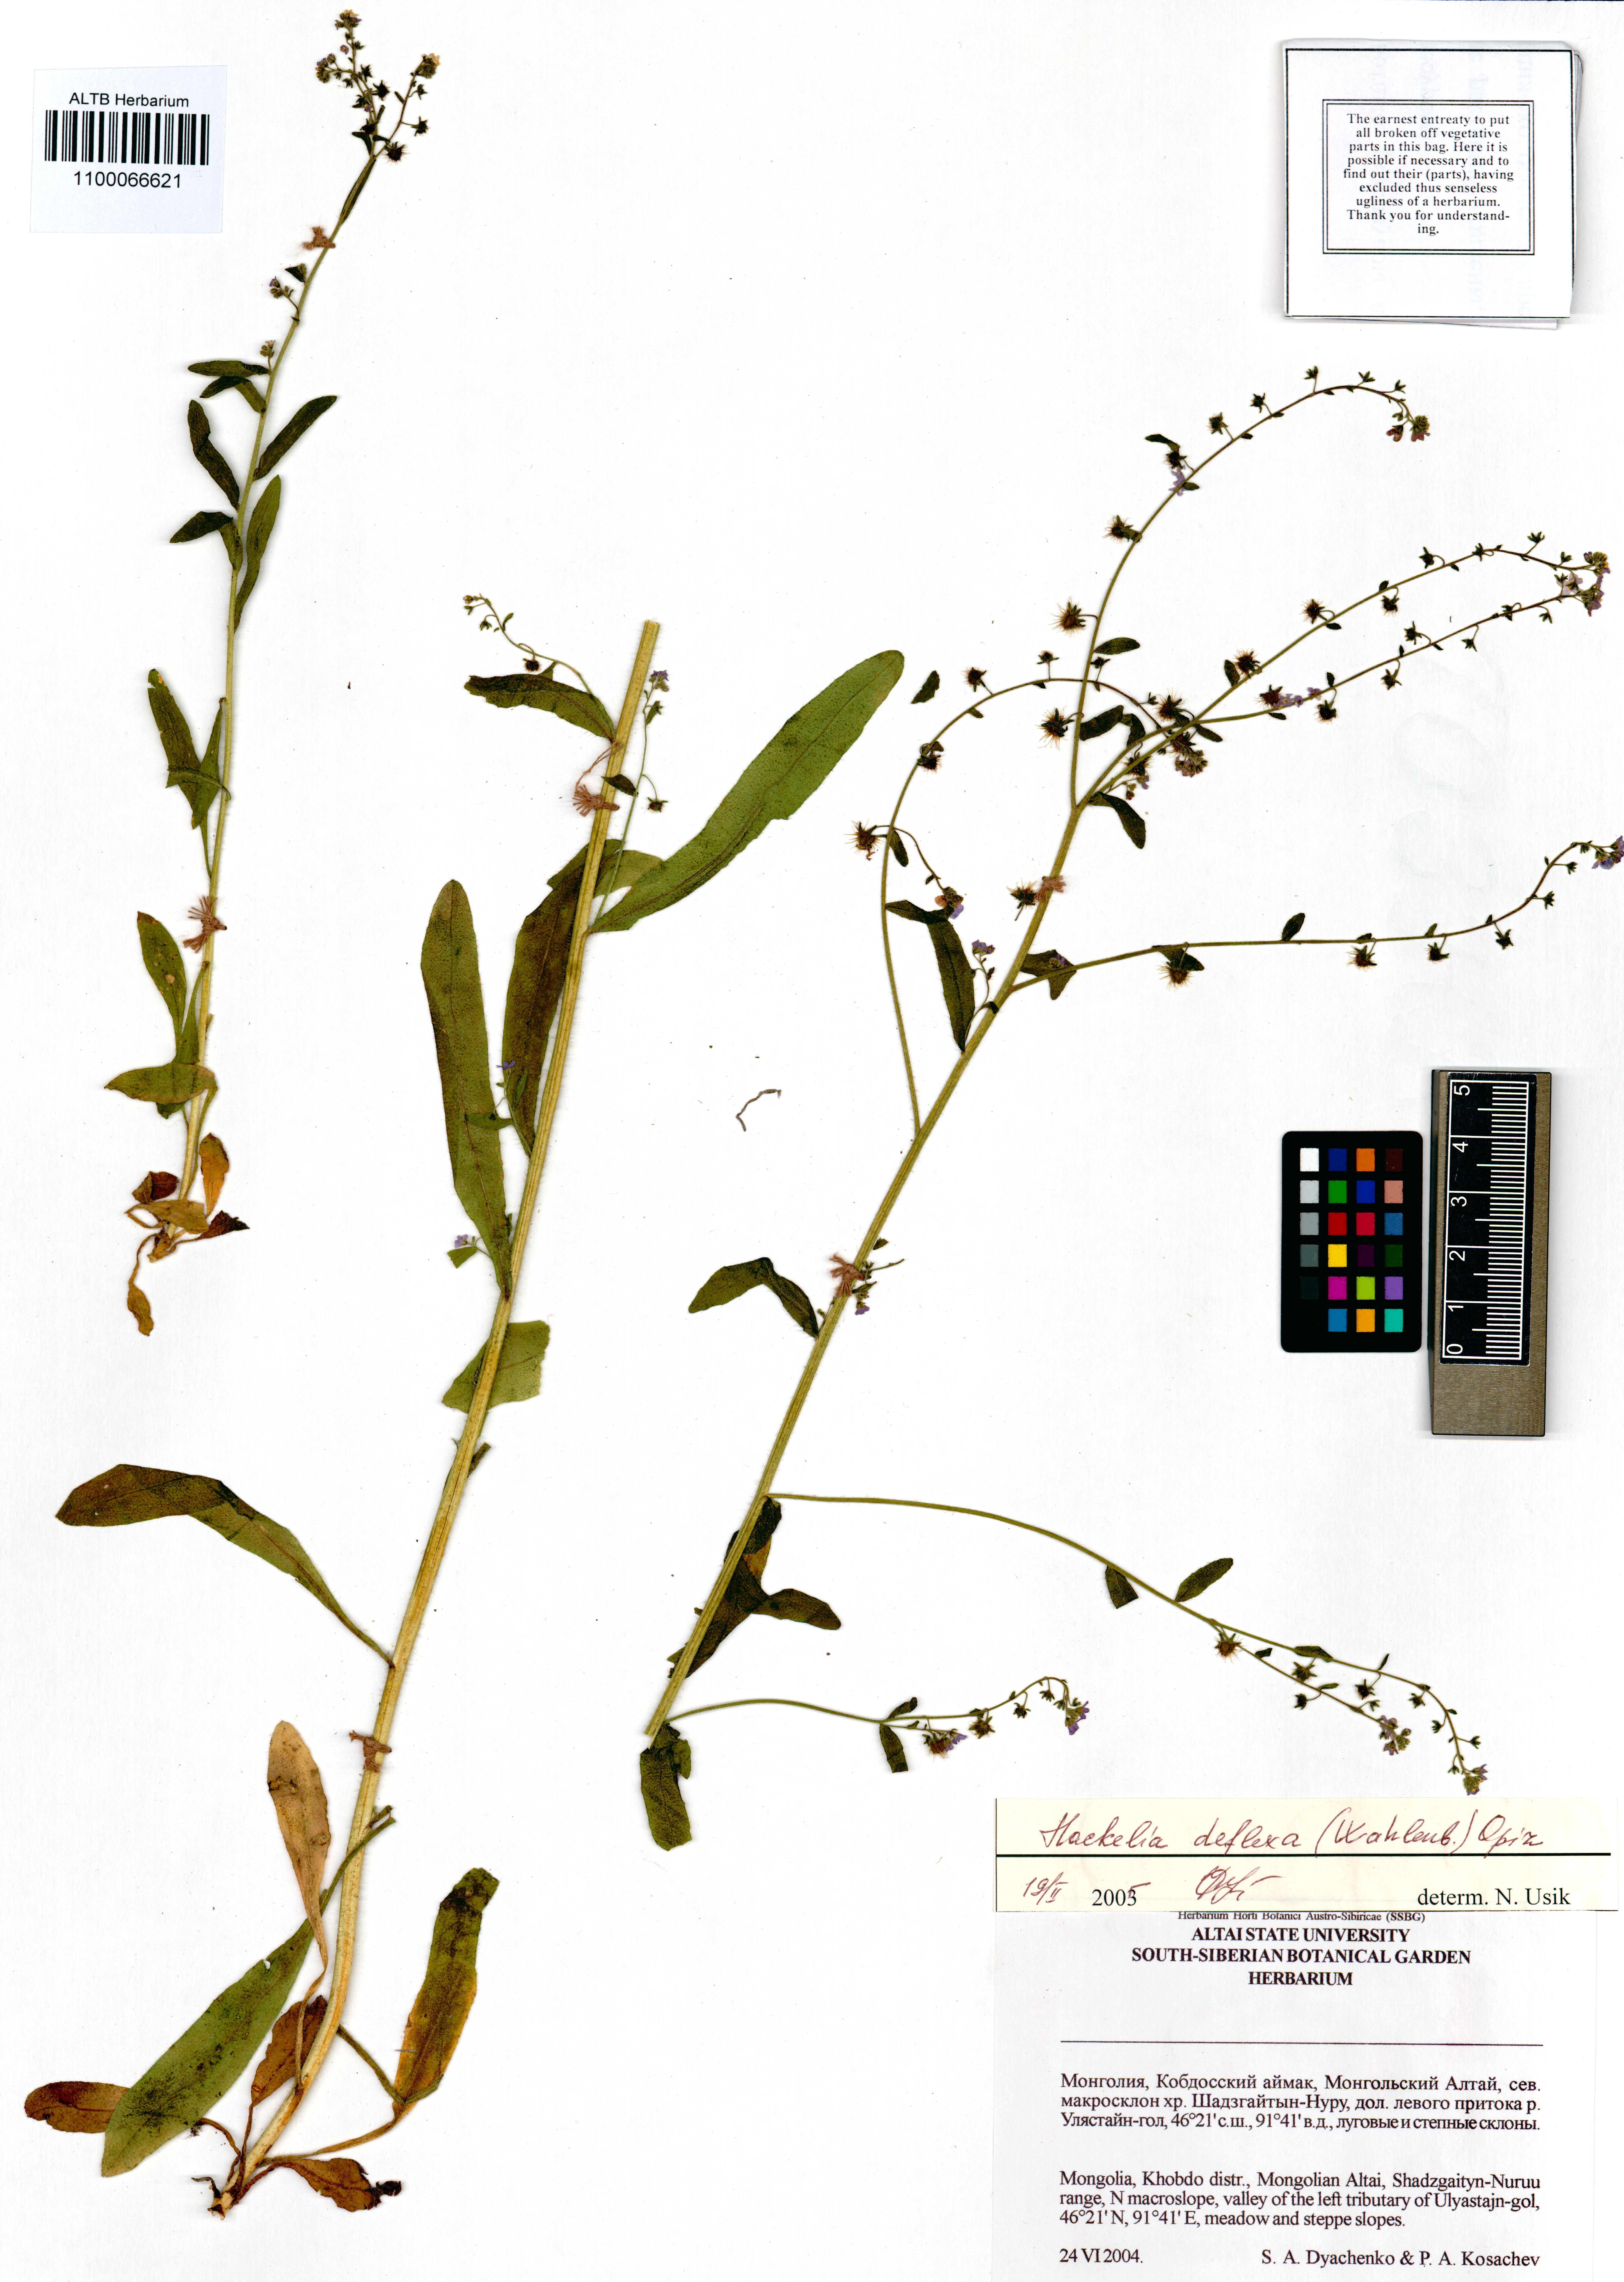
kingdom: Plantae
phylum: Tracheophyta
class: Magnoliopsida
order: Boraginales
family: Boraginaceae
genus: Hackelia
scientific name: Hackelia deflexa
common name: Nodding stickseed
